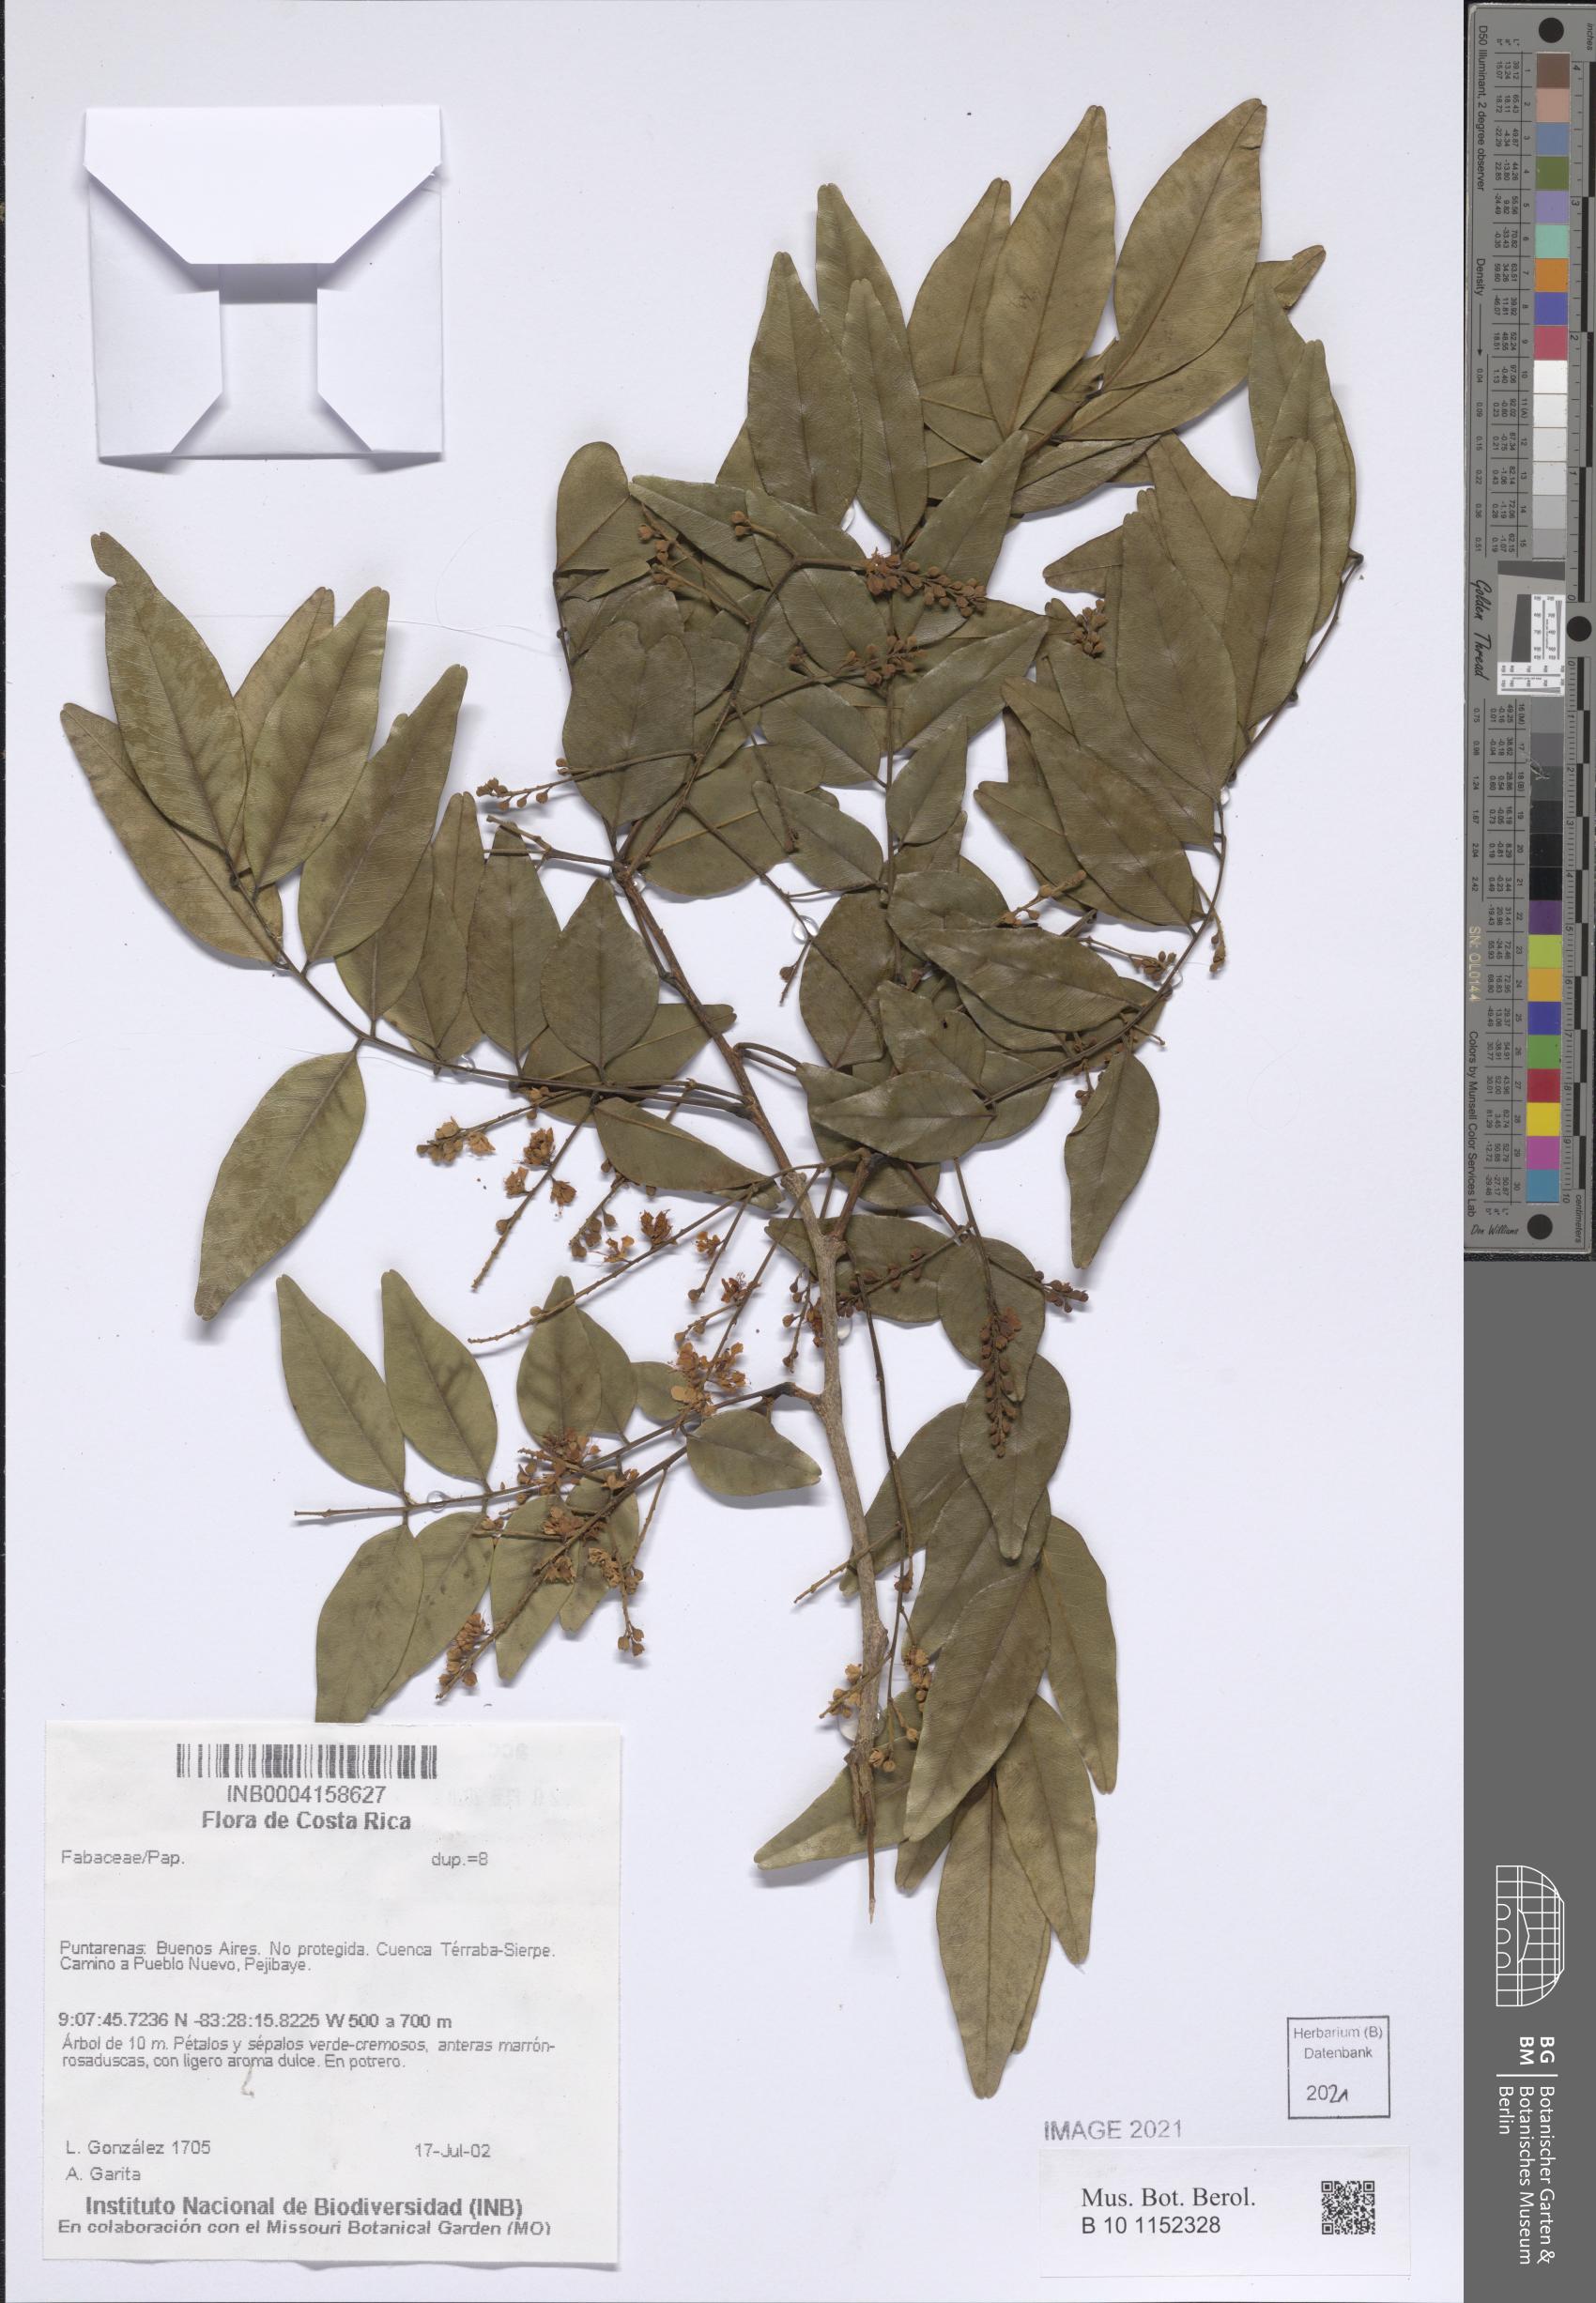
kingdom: Plantae
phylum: Tracheophyta
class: Magnoliopsida
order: Fabales
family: Fabaceae
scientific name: Fabaceae
